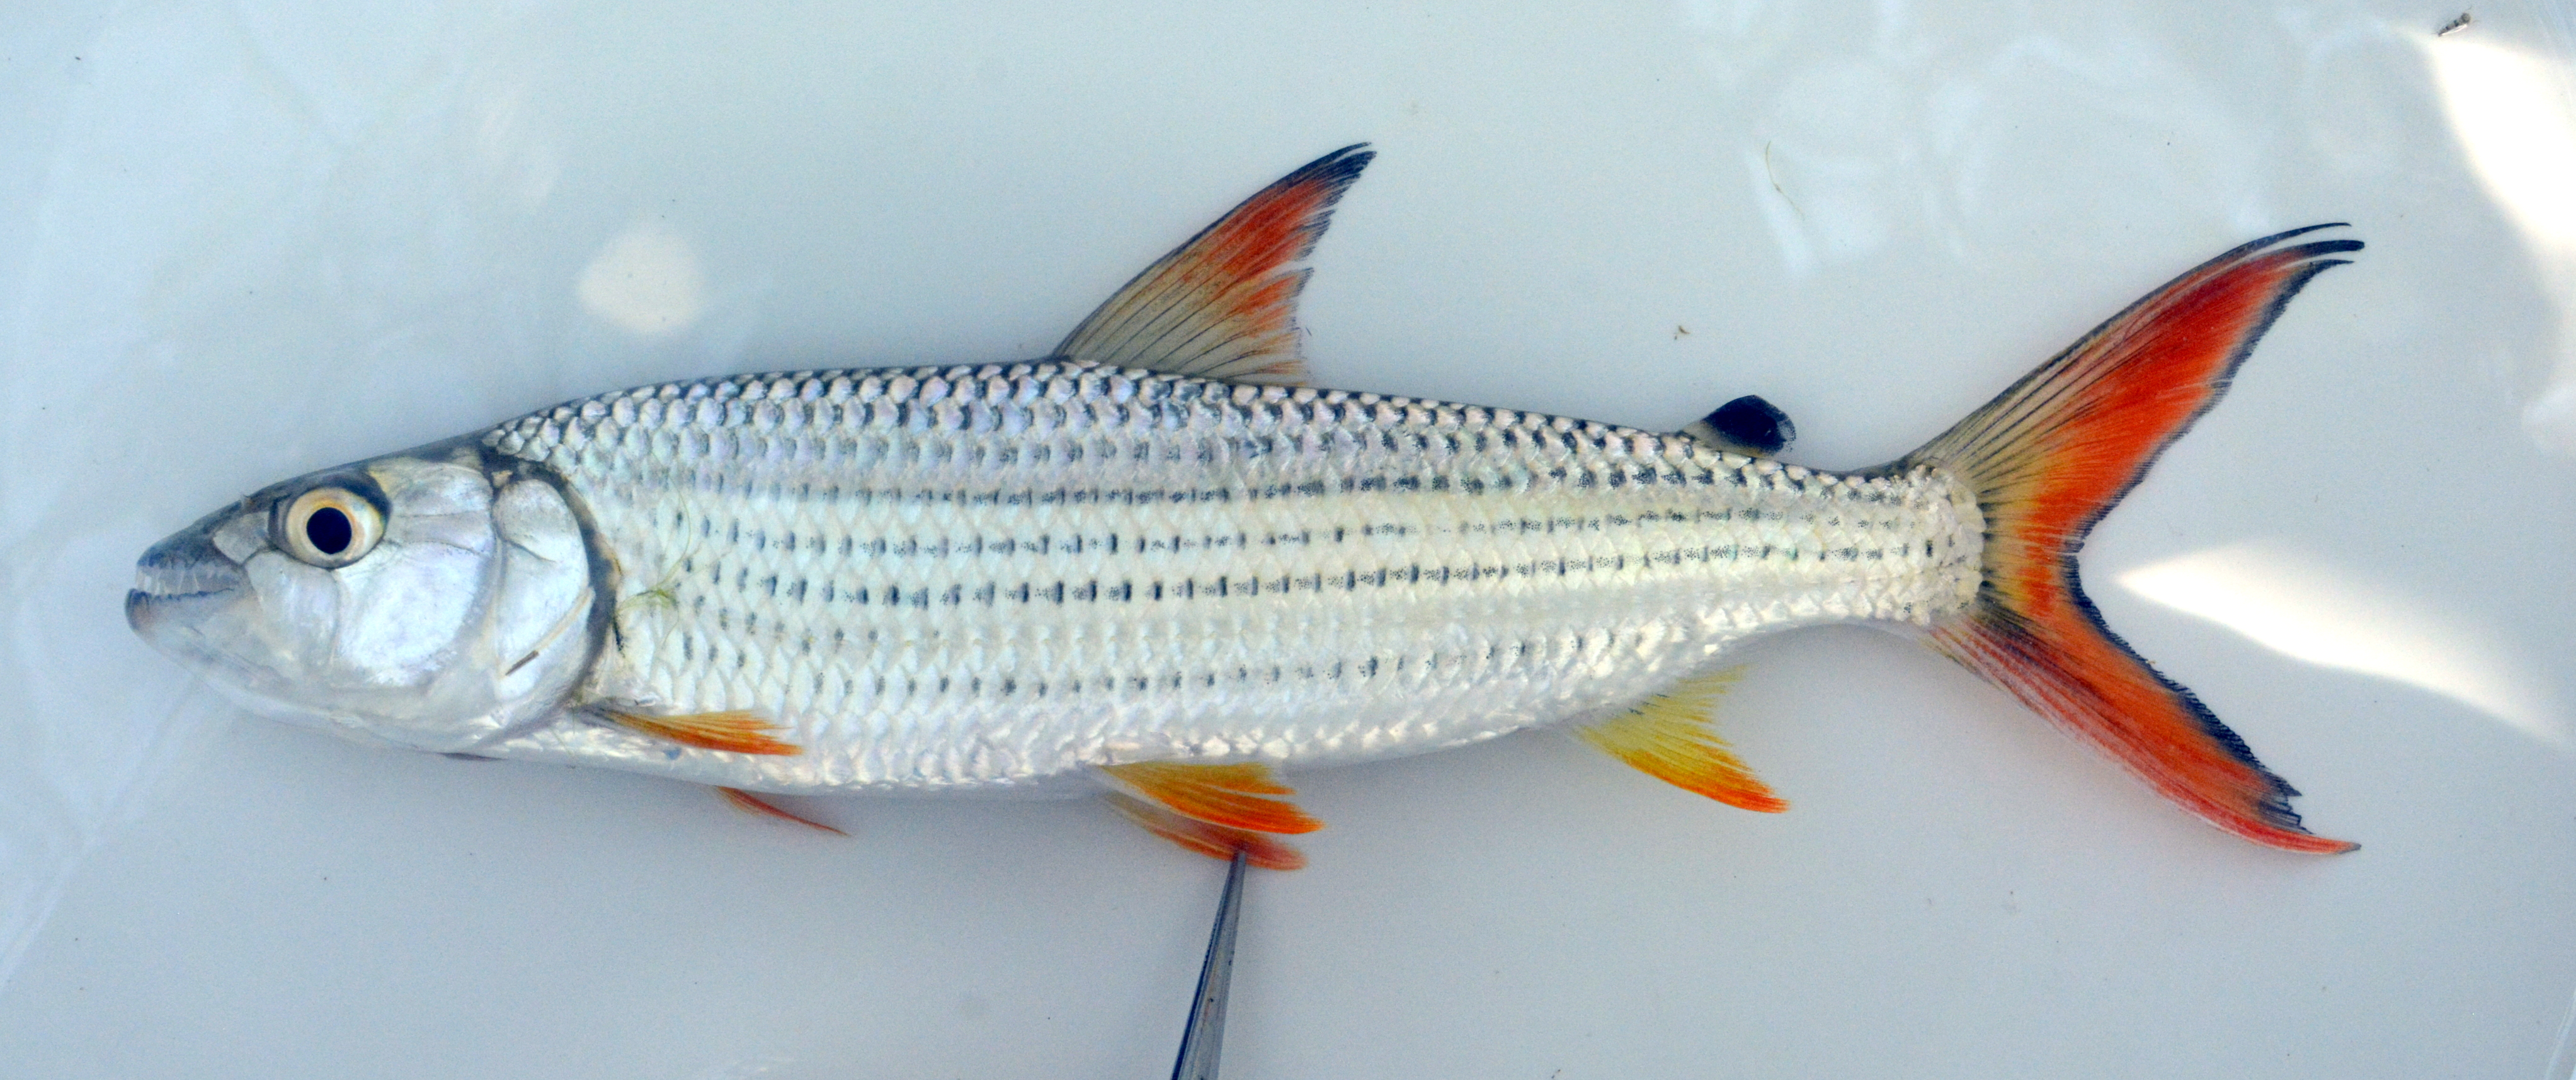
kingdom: Animalia
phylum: Chordata
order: Characiformes
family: Alestidae
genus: Hydrocynus
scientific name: Hydrocynus vittatus
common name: Tigerfish
